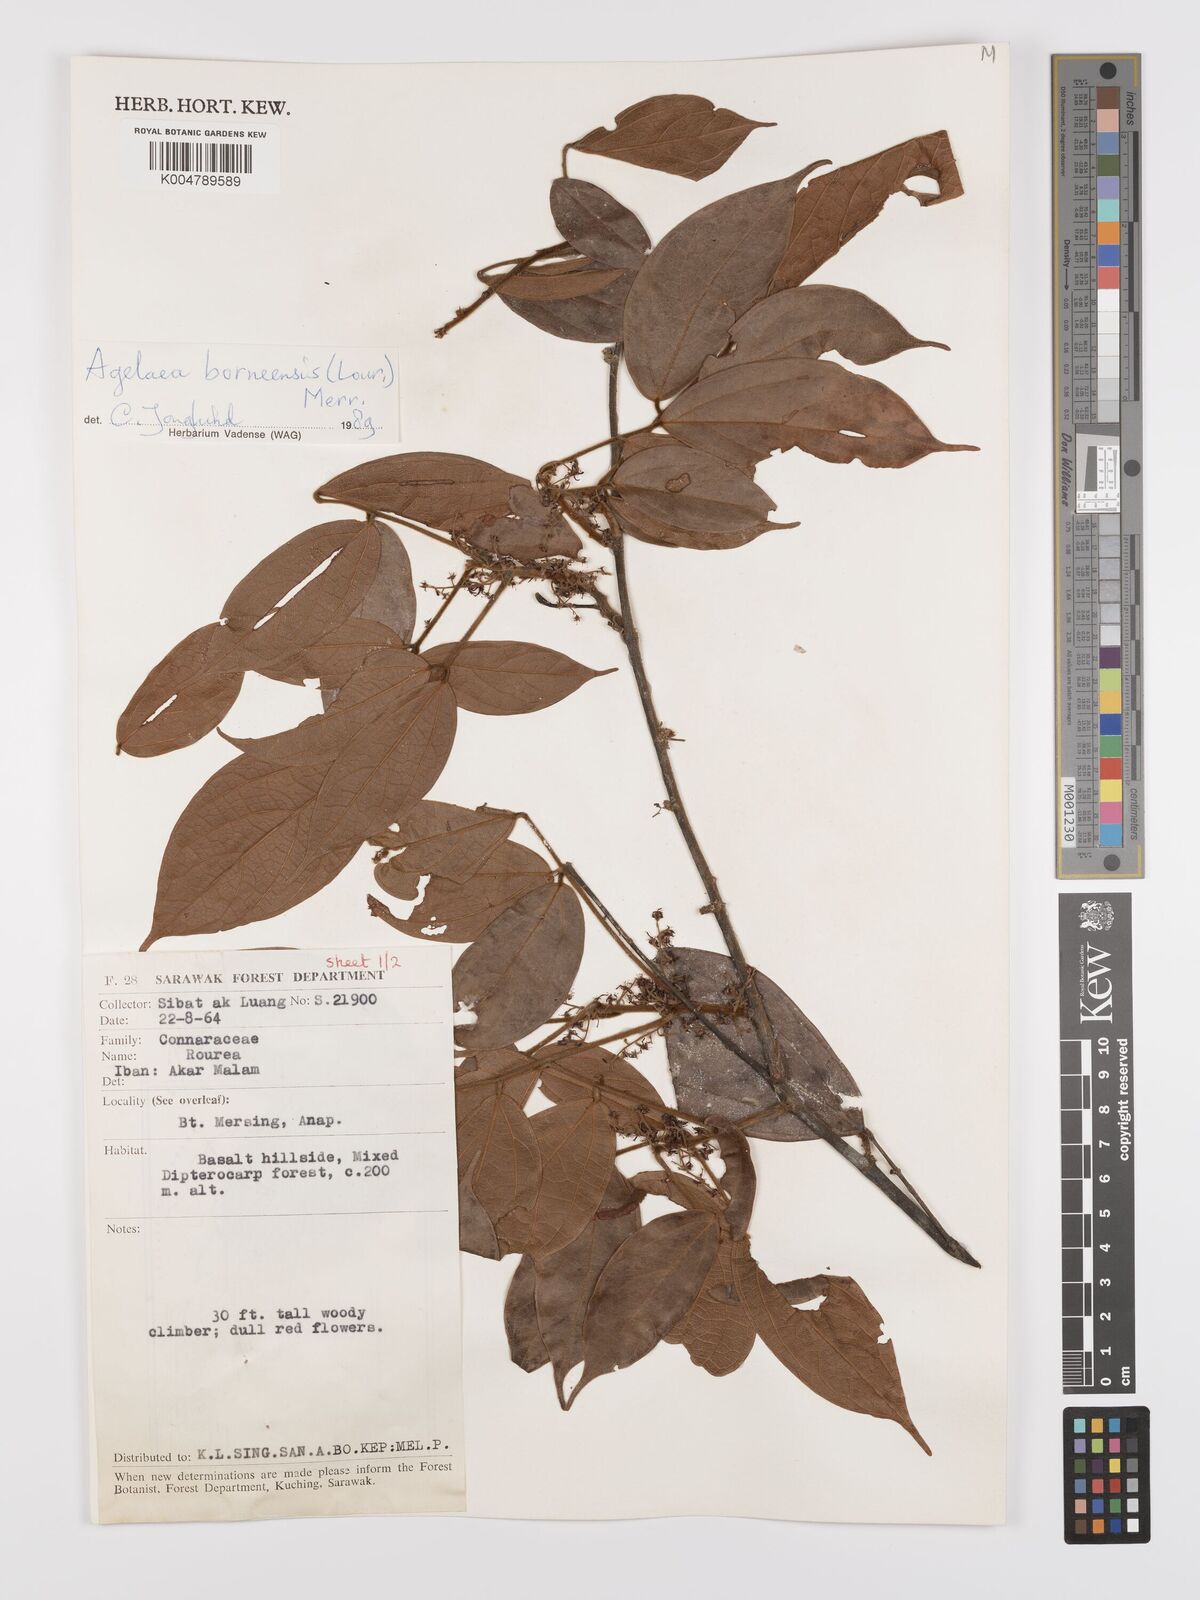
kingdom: Plantae
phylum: Tracheophyta
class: Magnoliopsida
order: Oxalidales
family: Connaraceae
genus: Agelaea
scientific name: Agelaea borneensis
